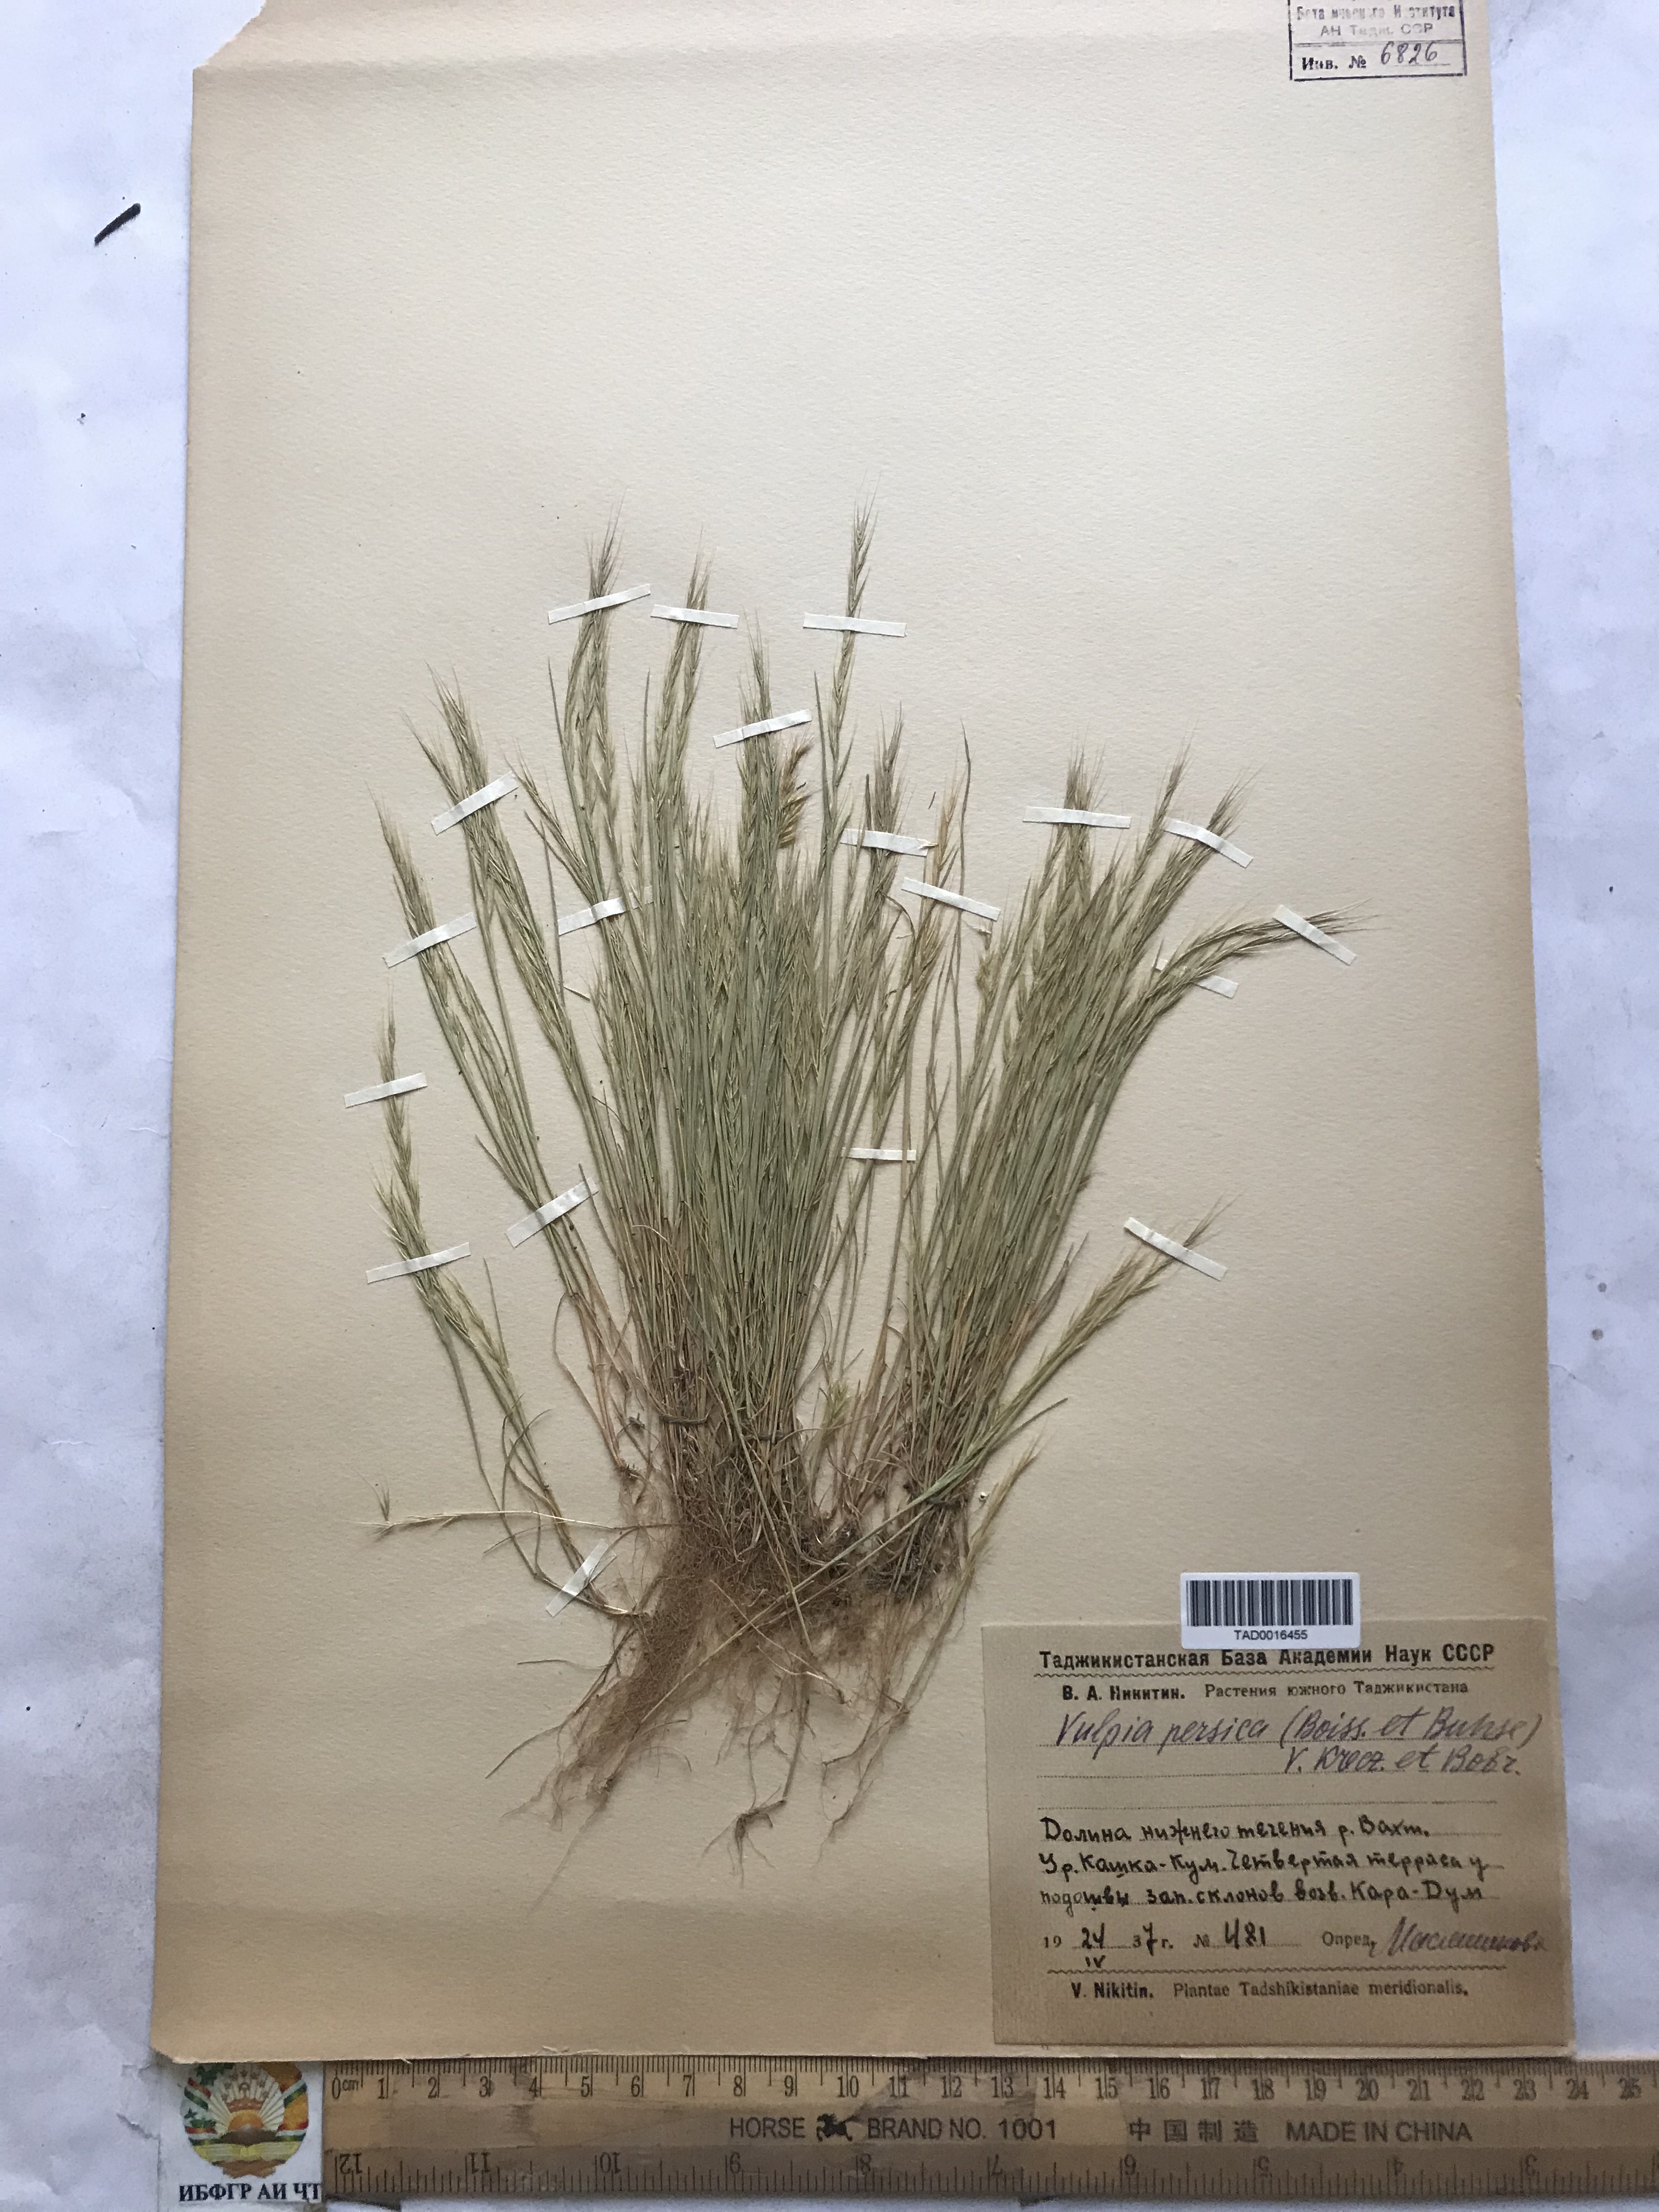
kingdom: Plantae
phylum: Tracheophyta
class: Liliopsida
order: Poales
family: Poaceae
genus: Festuca
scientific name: Festuca Vulpia persica
